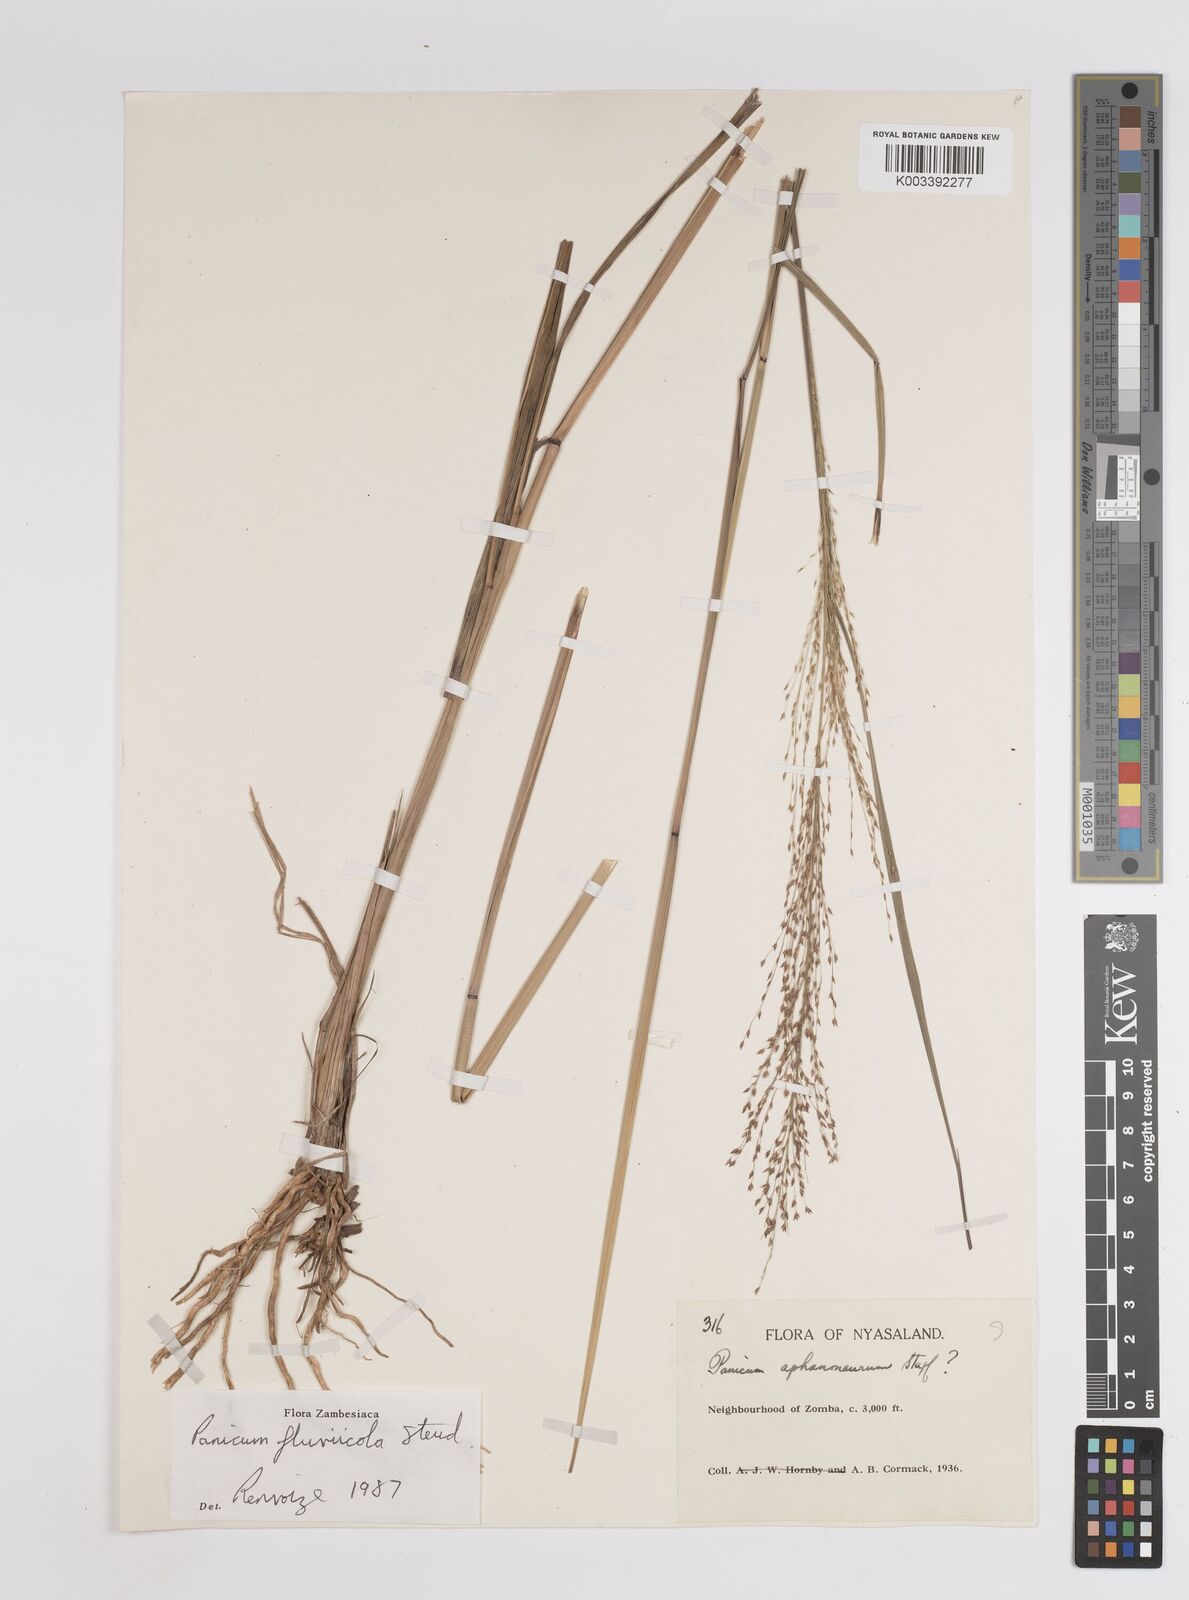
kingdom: Plantae
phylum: Tracheophyta
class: Liliopsida
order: Poales
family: Poaceae
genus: Panicum
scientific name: Panicum fluviicola
